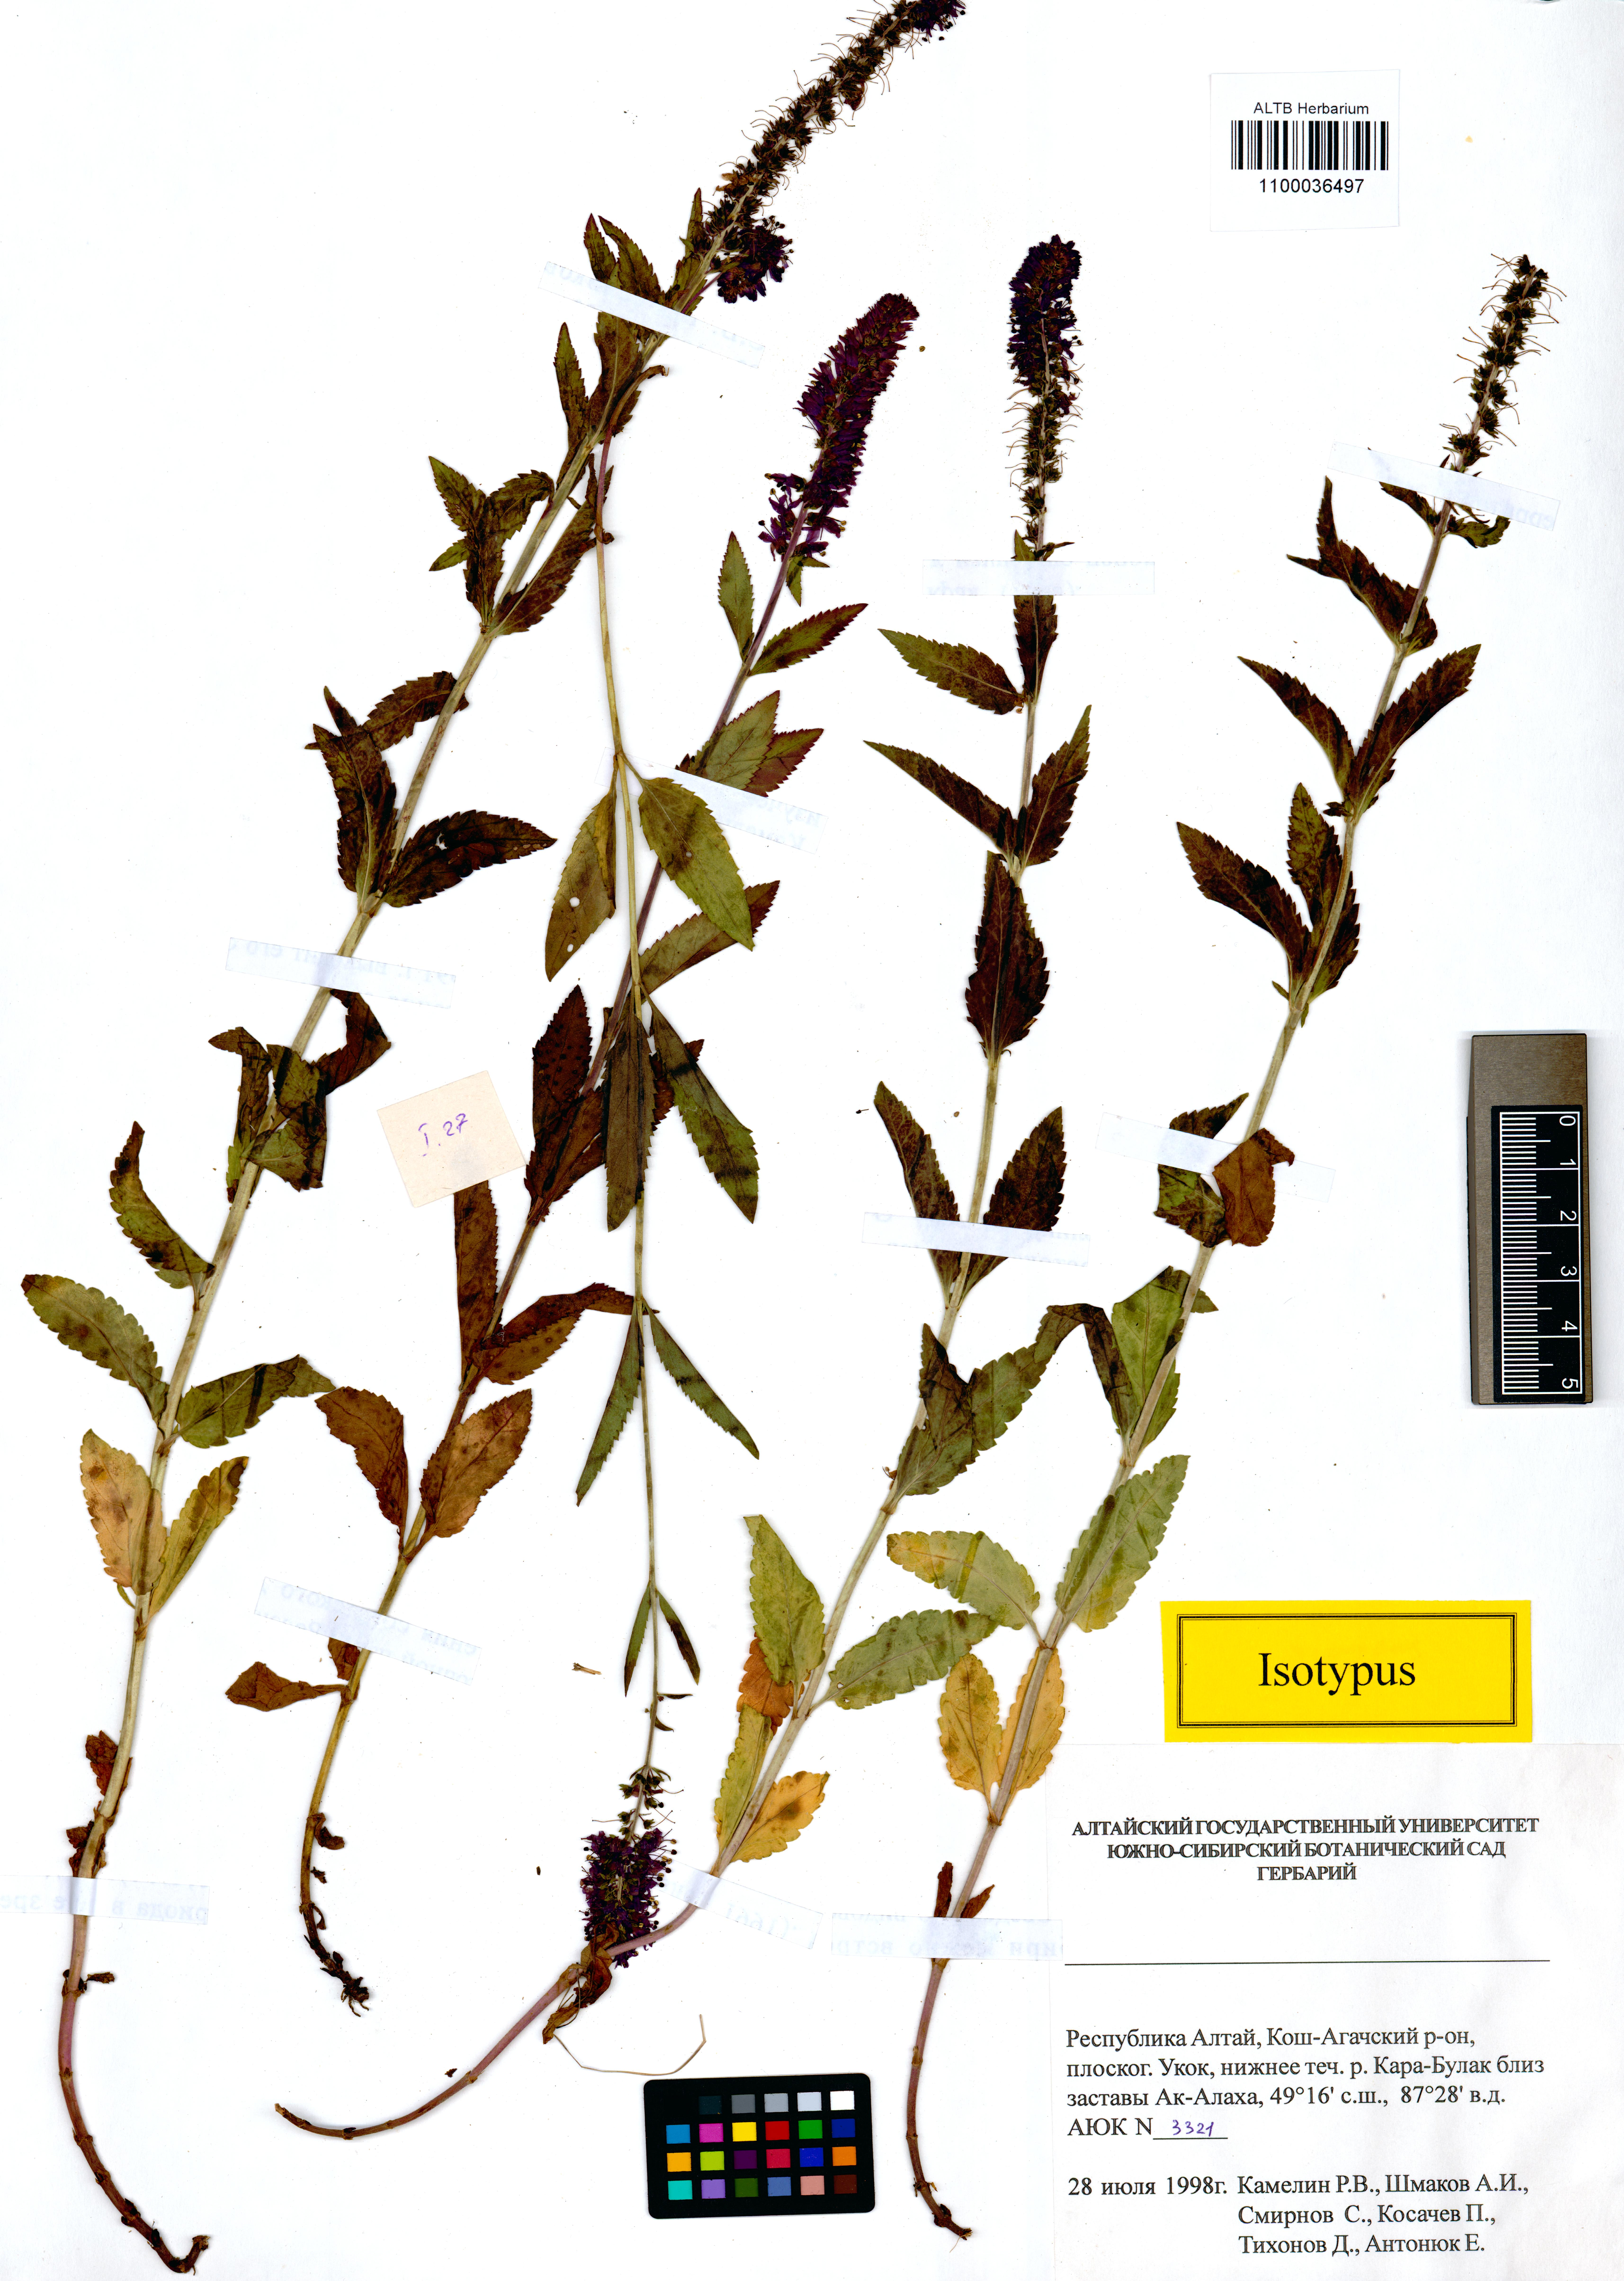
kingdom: Plantae
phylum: Tracheophyta
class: Magnoliopsida
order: Lamiales
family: Plantaginaceae
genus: Veronica
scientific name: Veronica schmakovii
